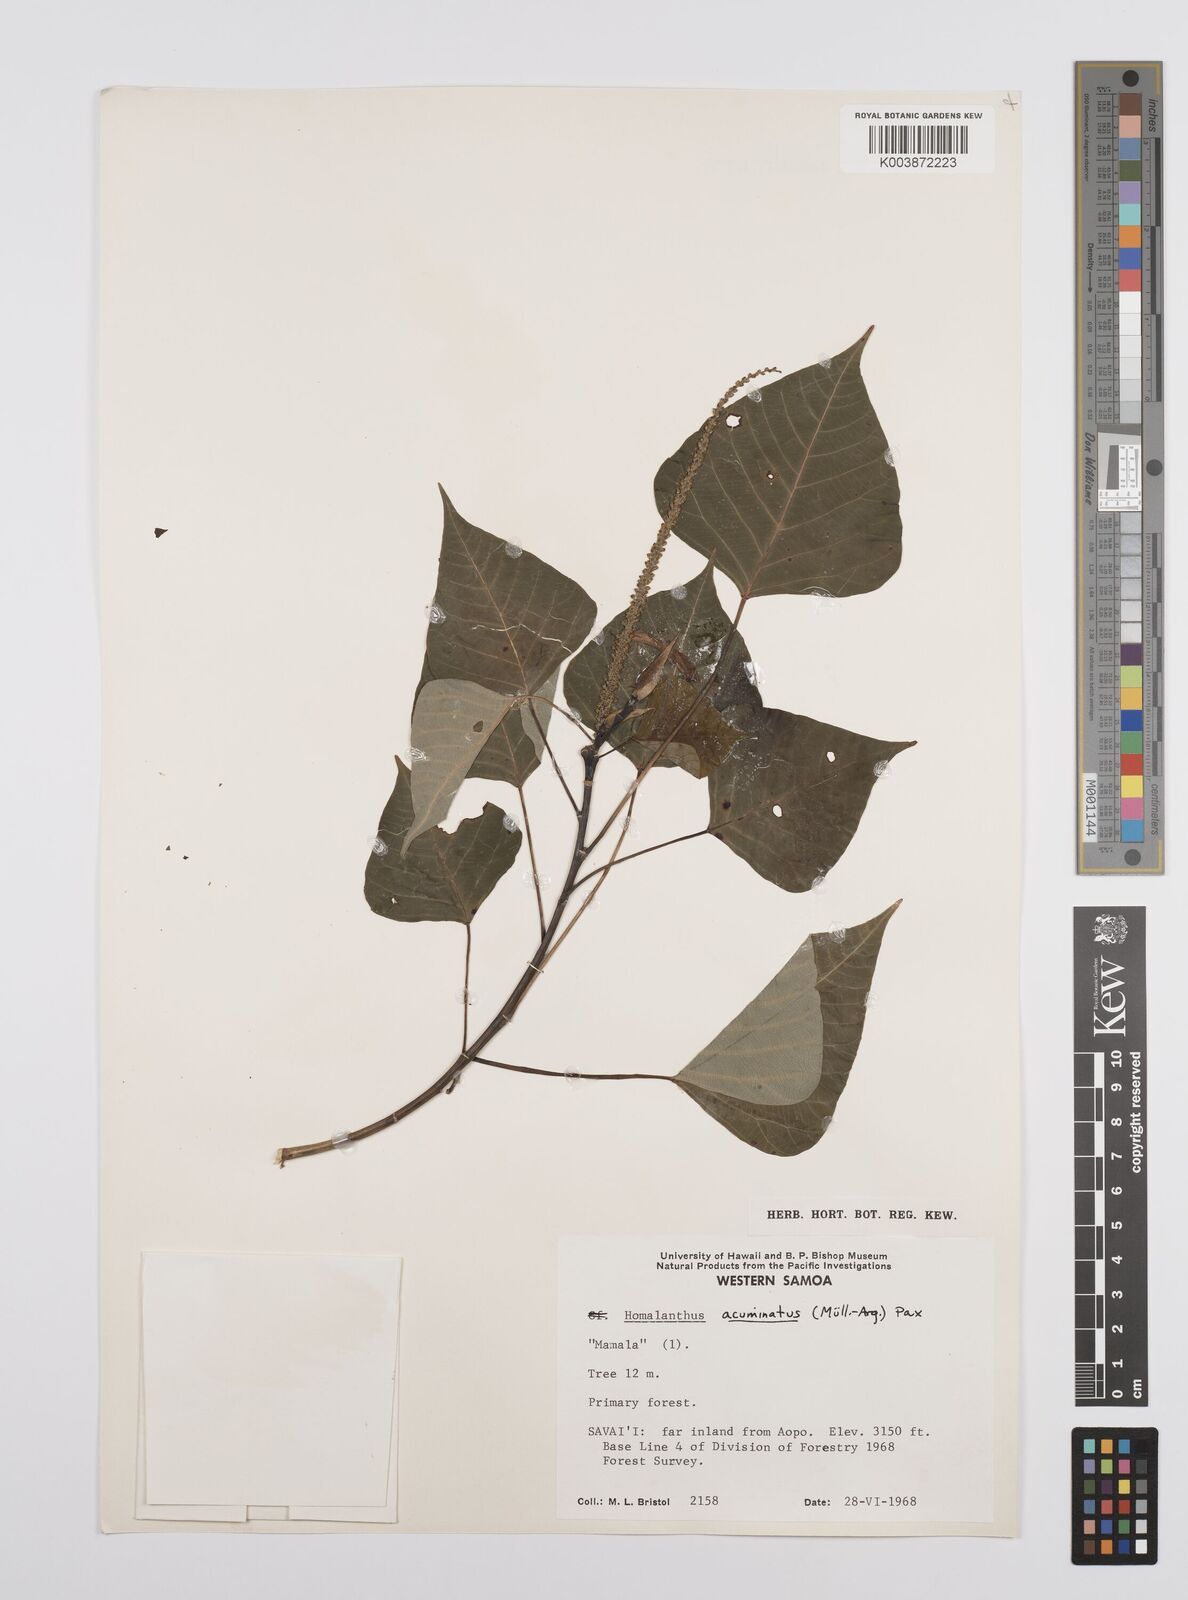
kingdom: Plantae
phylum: Tracheophyta
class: Magnoliopsida
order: Malpighiales
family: Euphorbiaceae
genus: Homalanthus
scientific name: Homalanthus acuminatus
